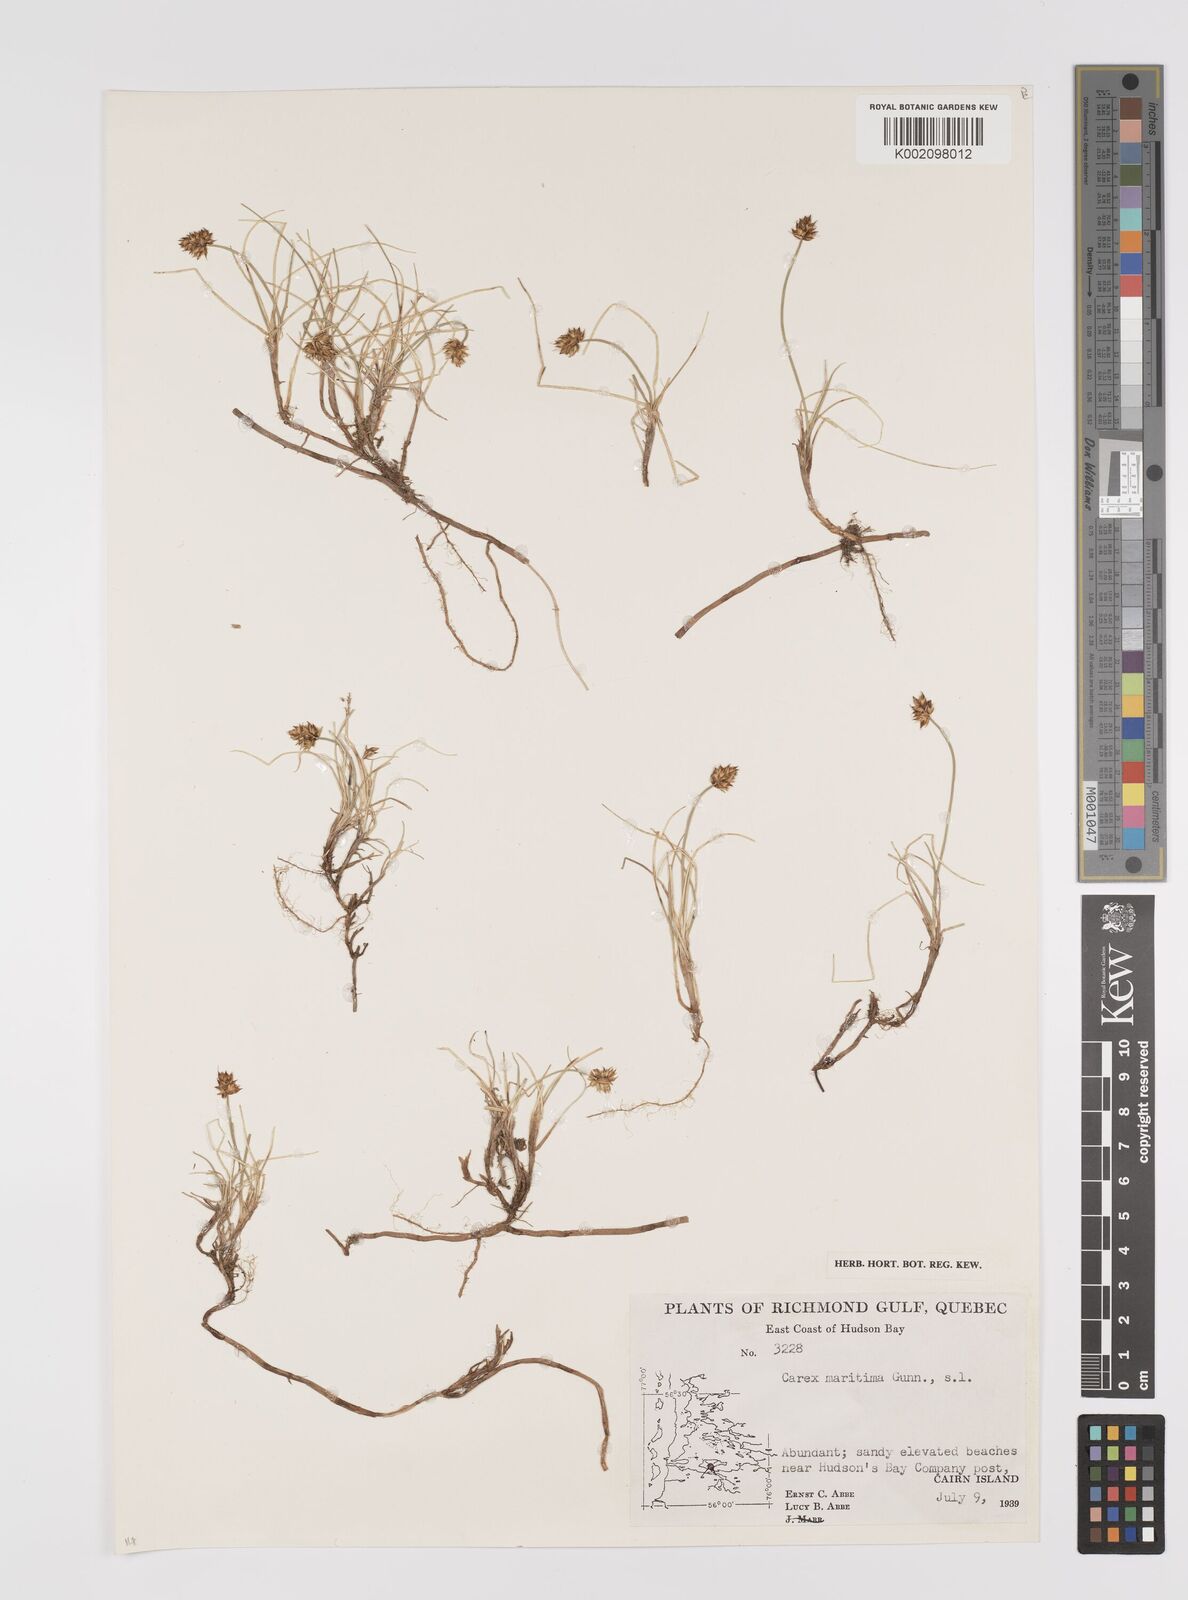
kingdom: Plantae
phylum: Tracheophyta
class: Liliopsida
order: Poales
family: Cyperaceae
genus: Carex
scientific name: Carex maritima
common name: Curved sedge
